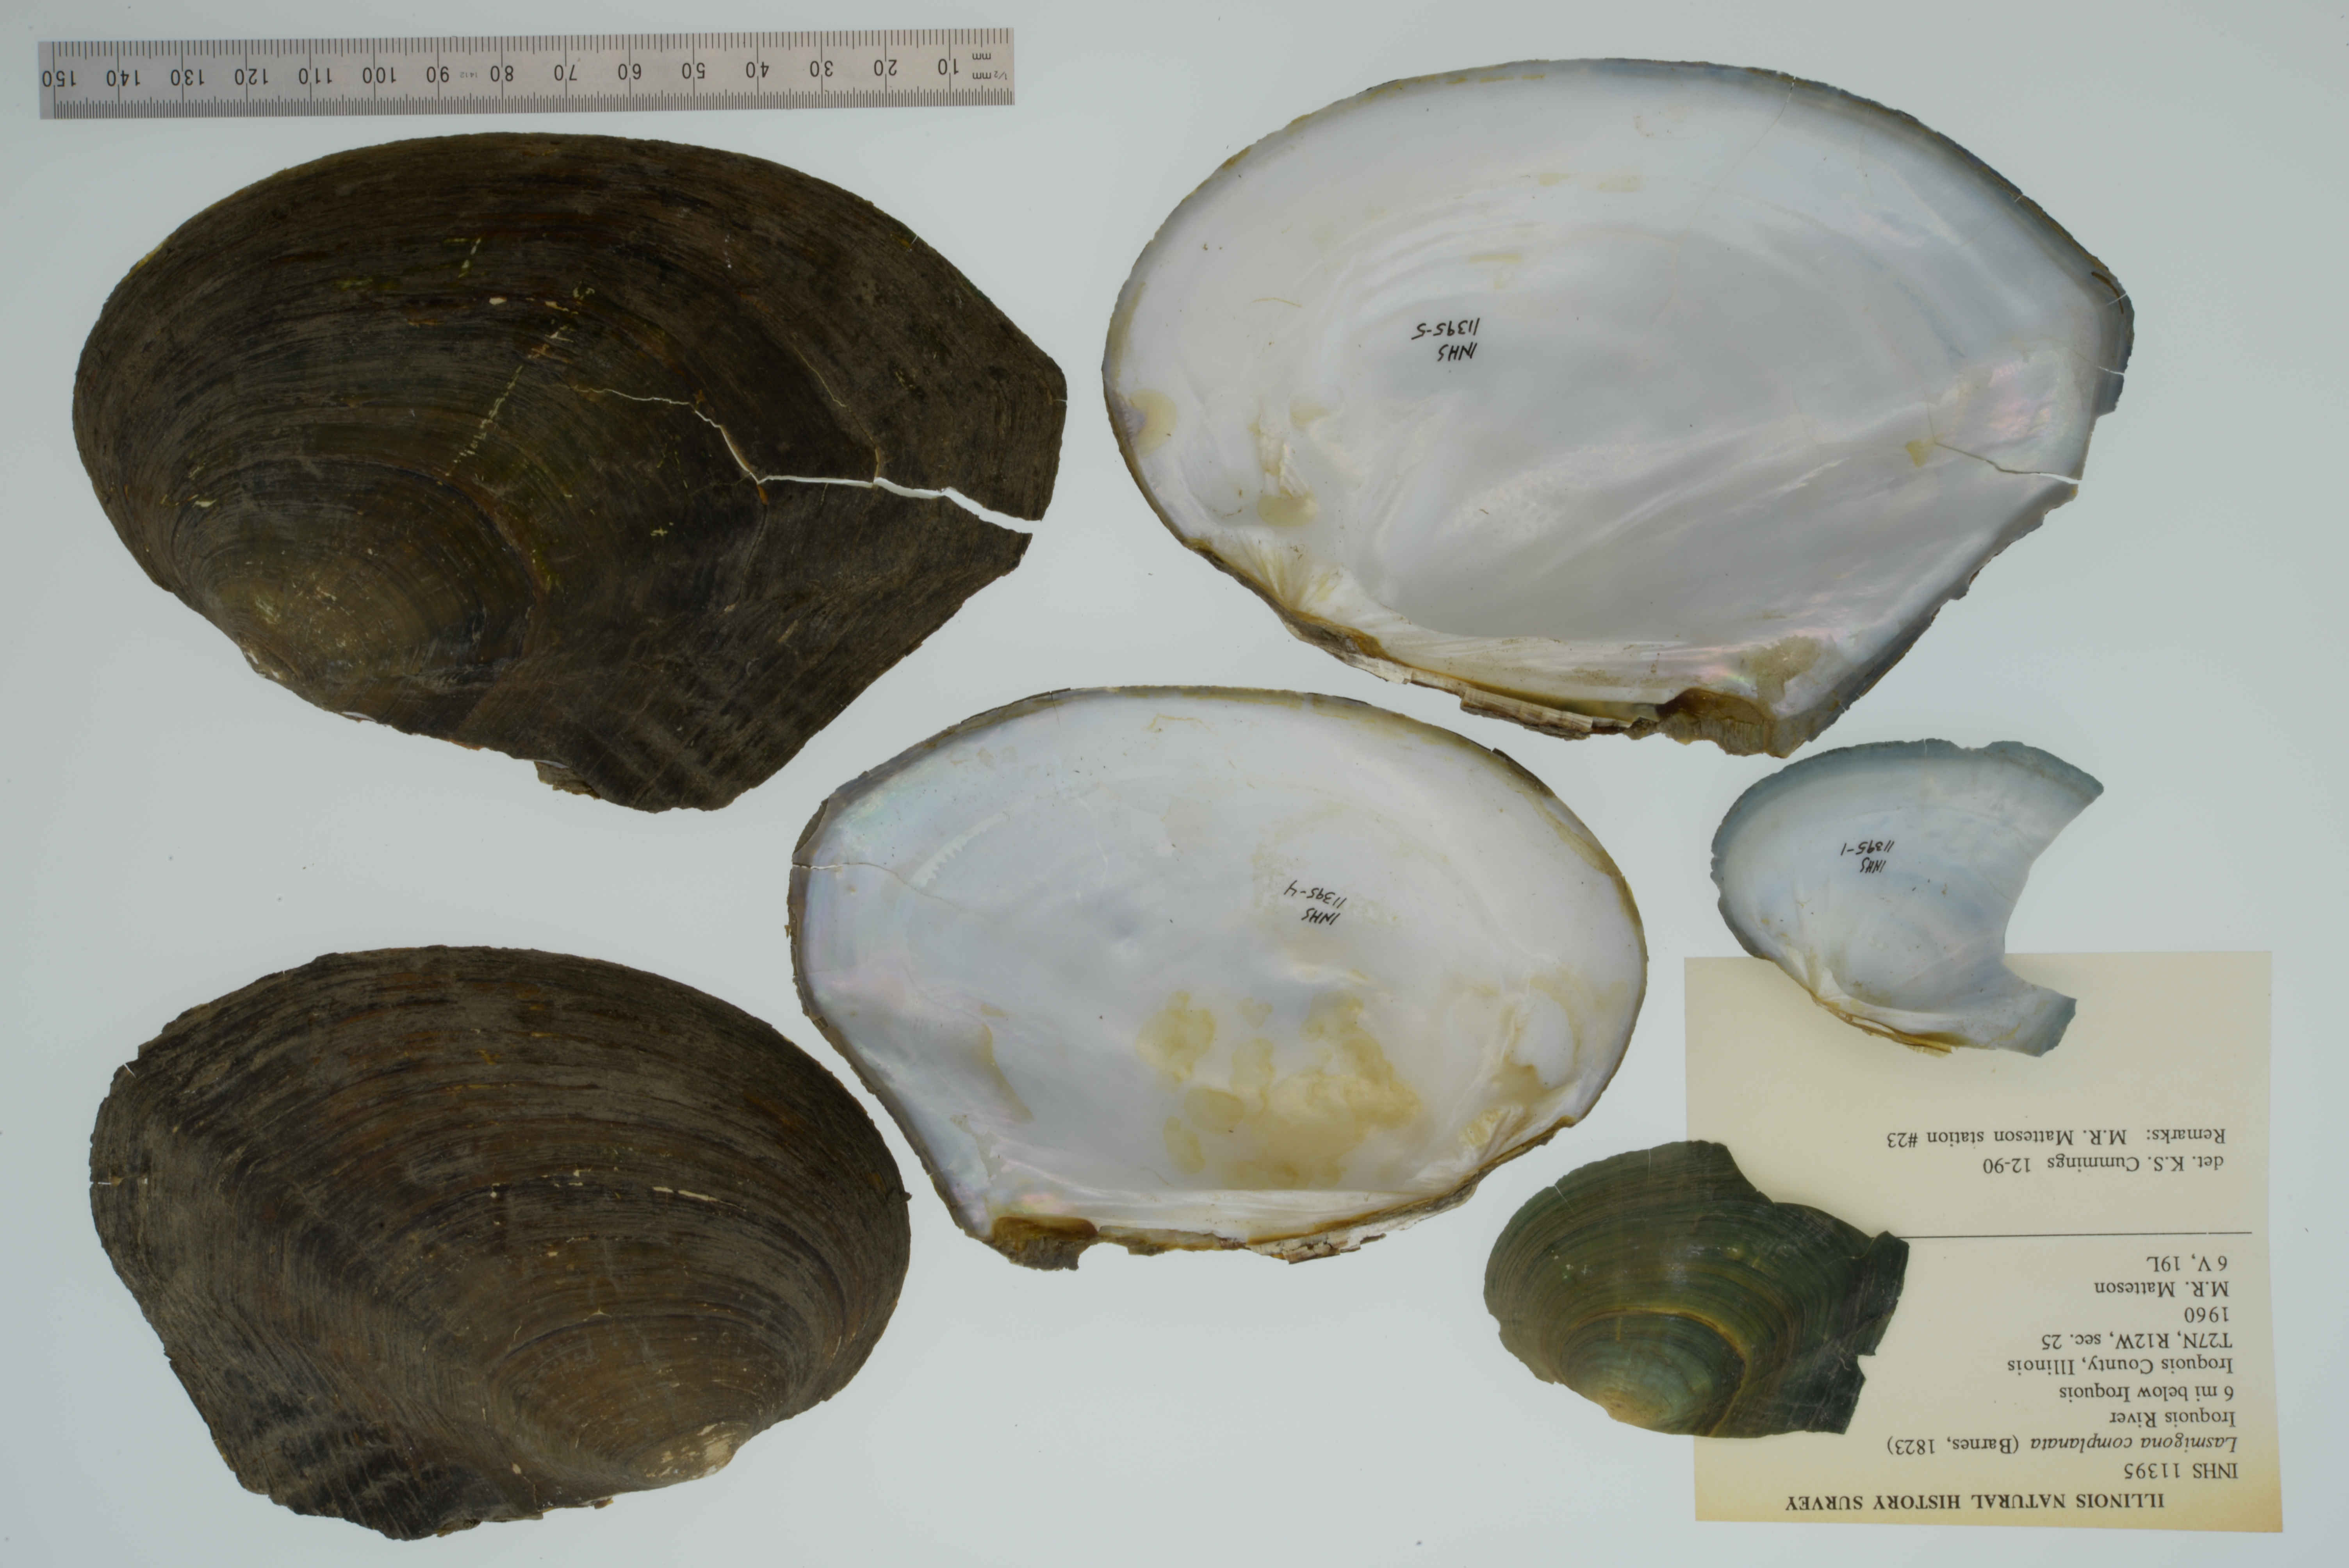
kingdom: Animalia
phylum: Mollusca
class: Bivalvia
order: Unionida
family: Unionidae
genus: Lasmigona
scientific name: Lasmigona complanata
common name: White heelsplitter
